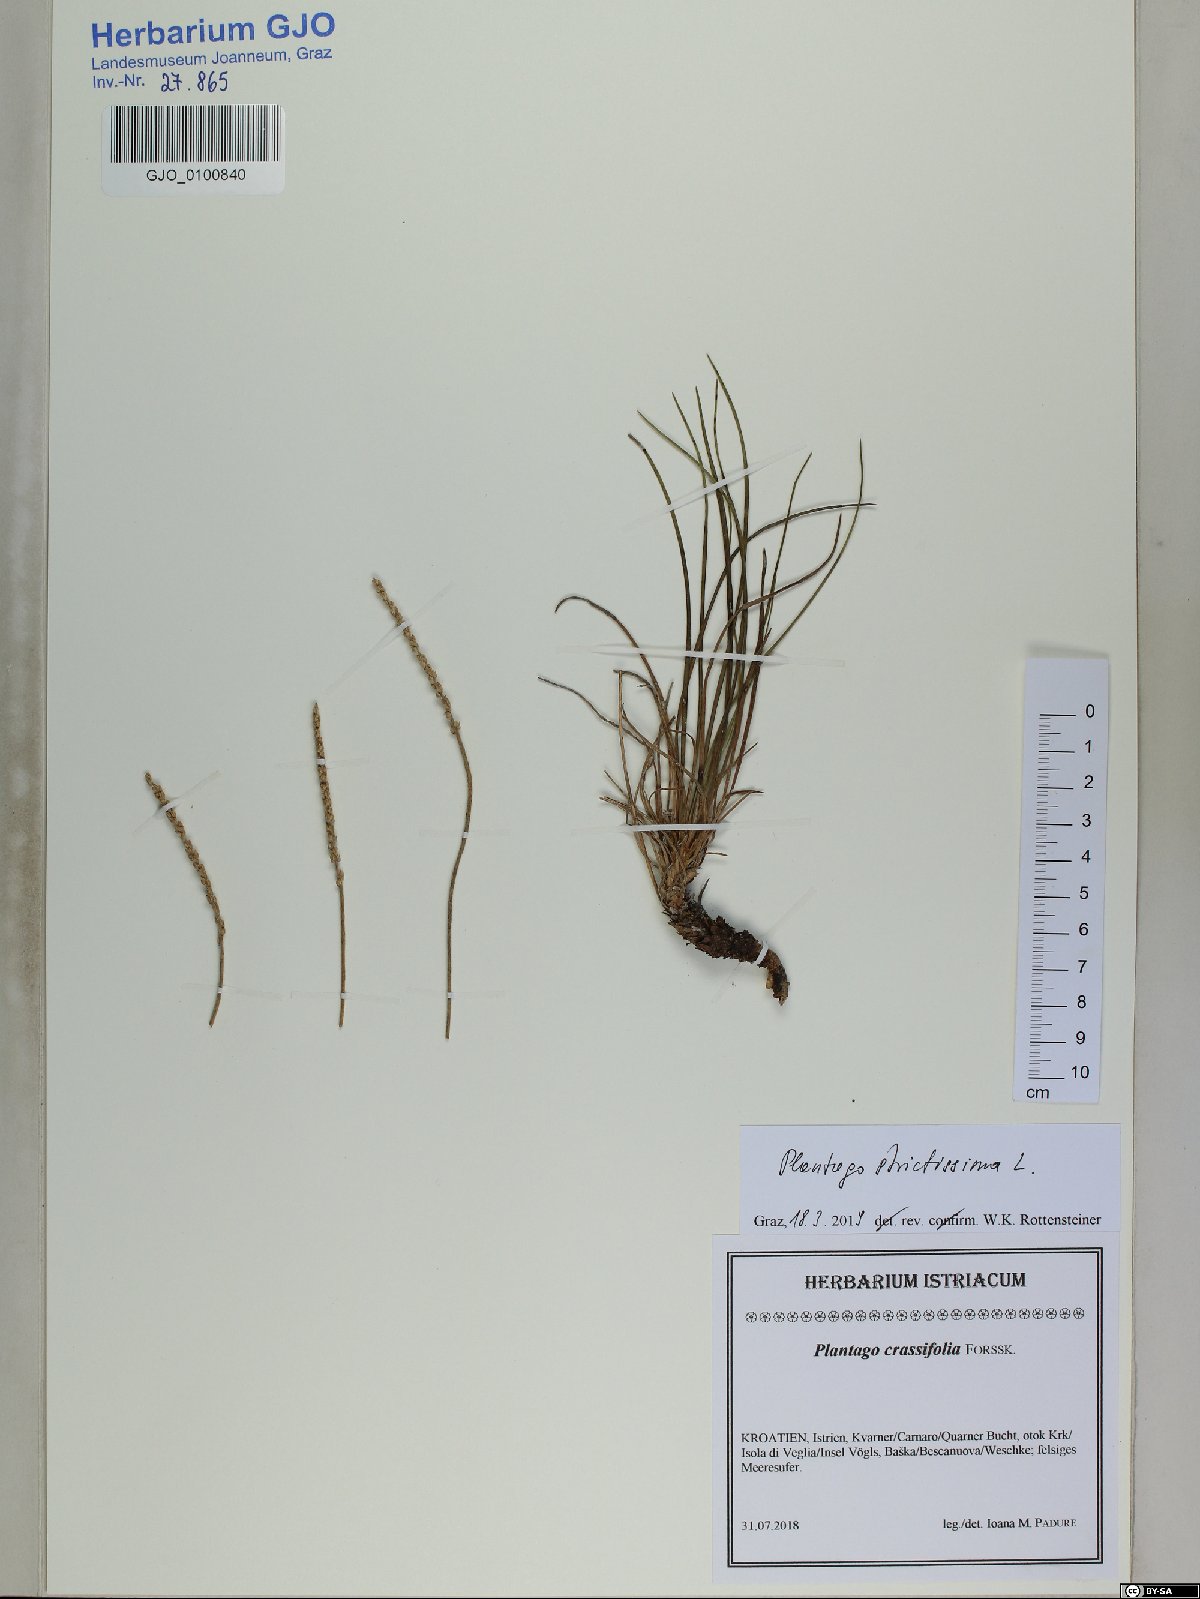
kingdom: Plantae
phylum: Tracheophyta
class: Magnoliopsida
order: Lamiales
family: Plantaginaceae
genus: Plantago
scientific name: Plantago strictissima
